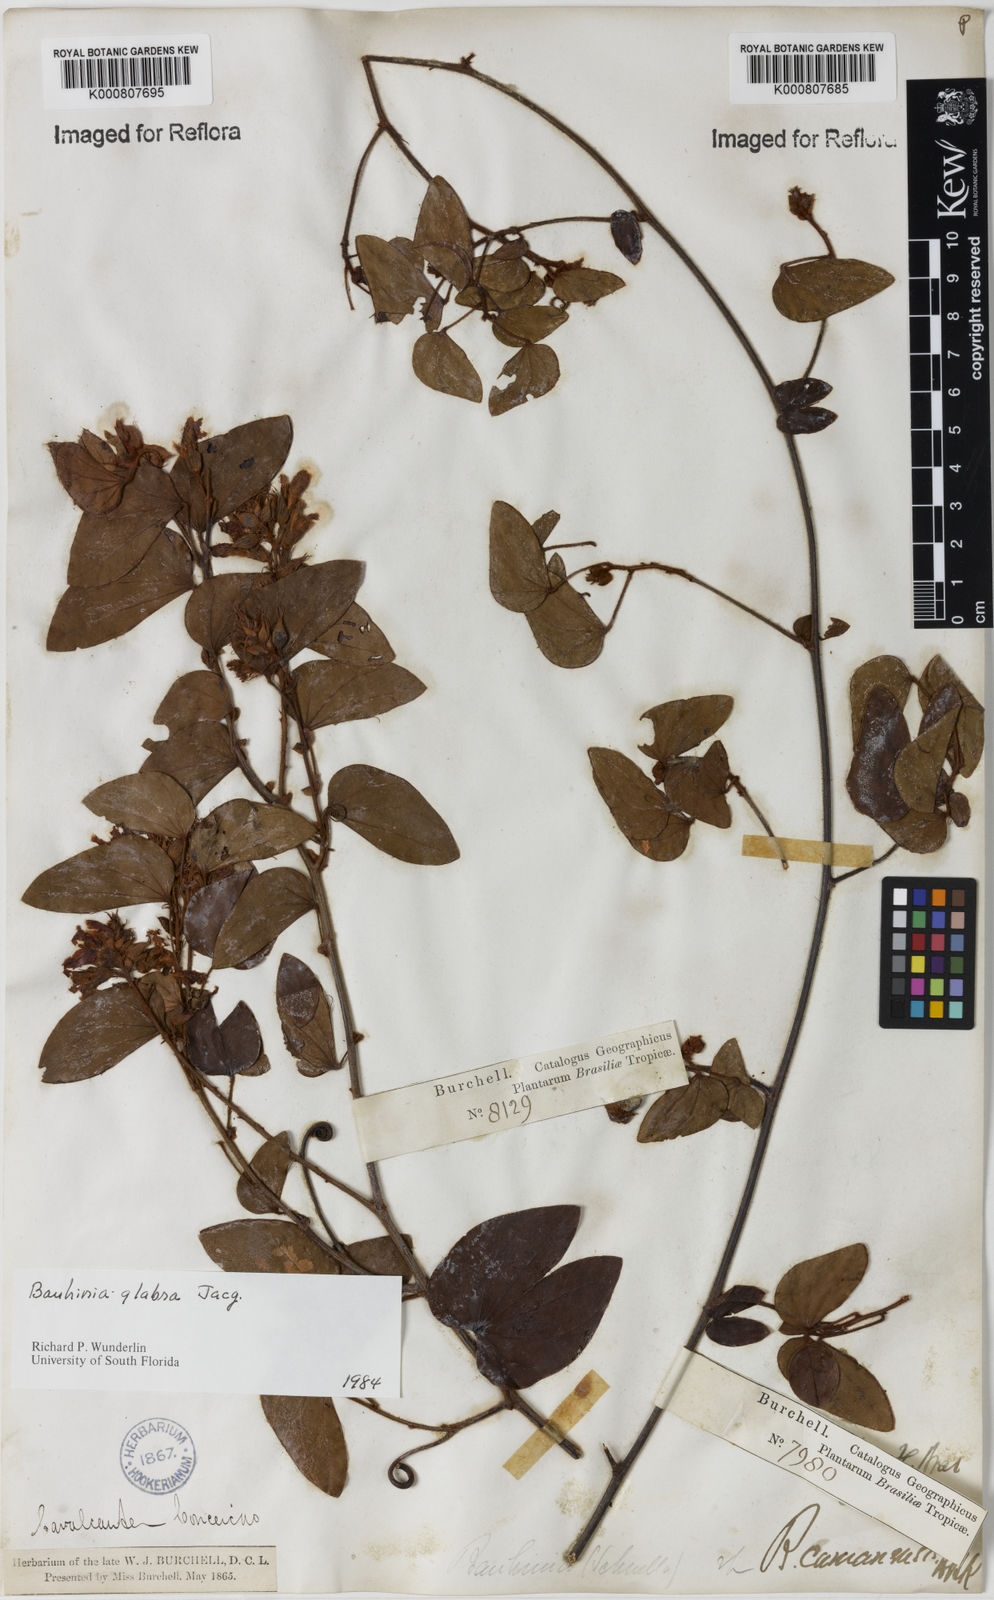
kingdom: Plantae
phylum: Tracheophyta
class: Magnoliopsida
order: Fabales
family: Fabaceae
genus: Schnella
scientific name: Schnella glabra
